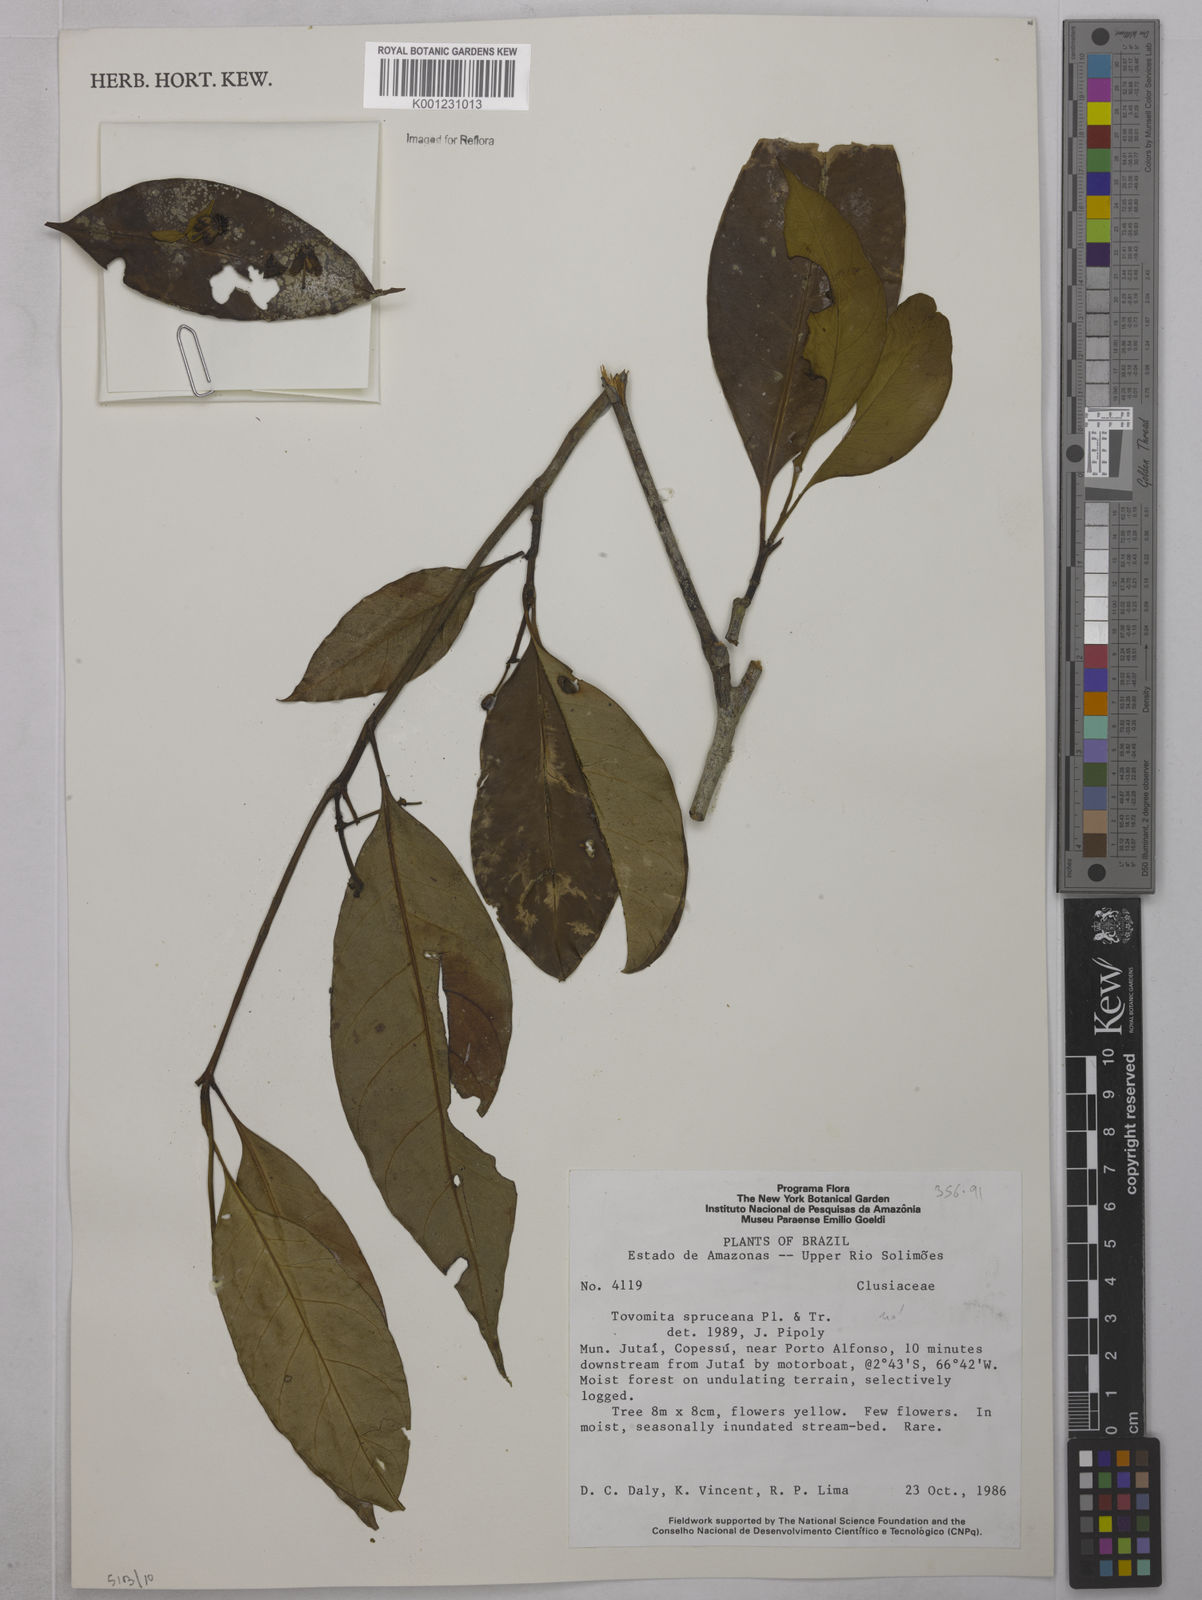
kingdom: Plantae
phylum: Tracheophyta
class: Magnoliopsida
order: Malpighiales
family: Clusiaceae
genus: Tovomita
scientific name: Tovomita gracilipes
